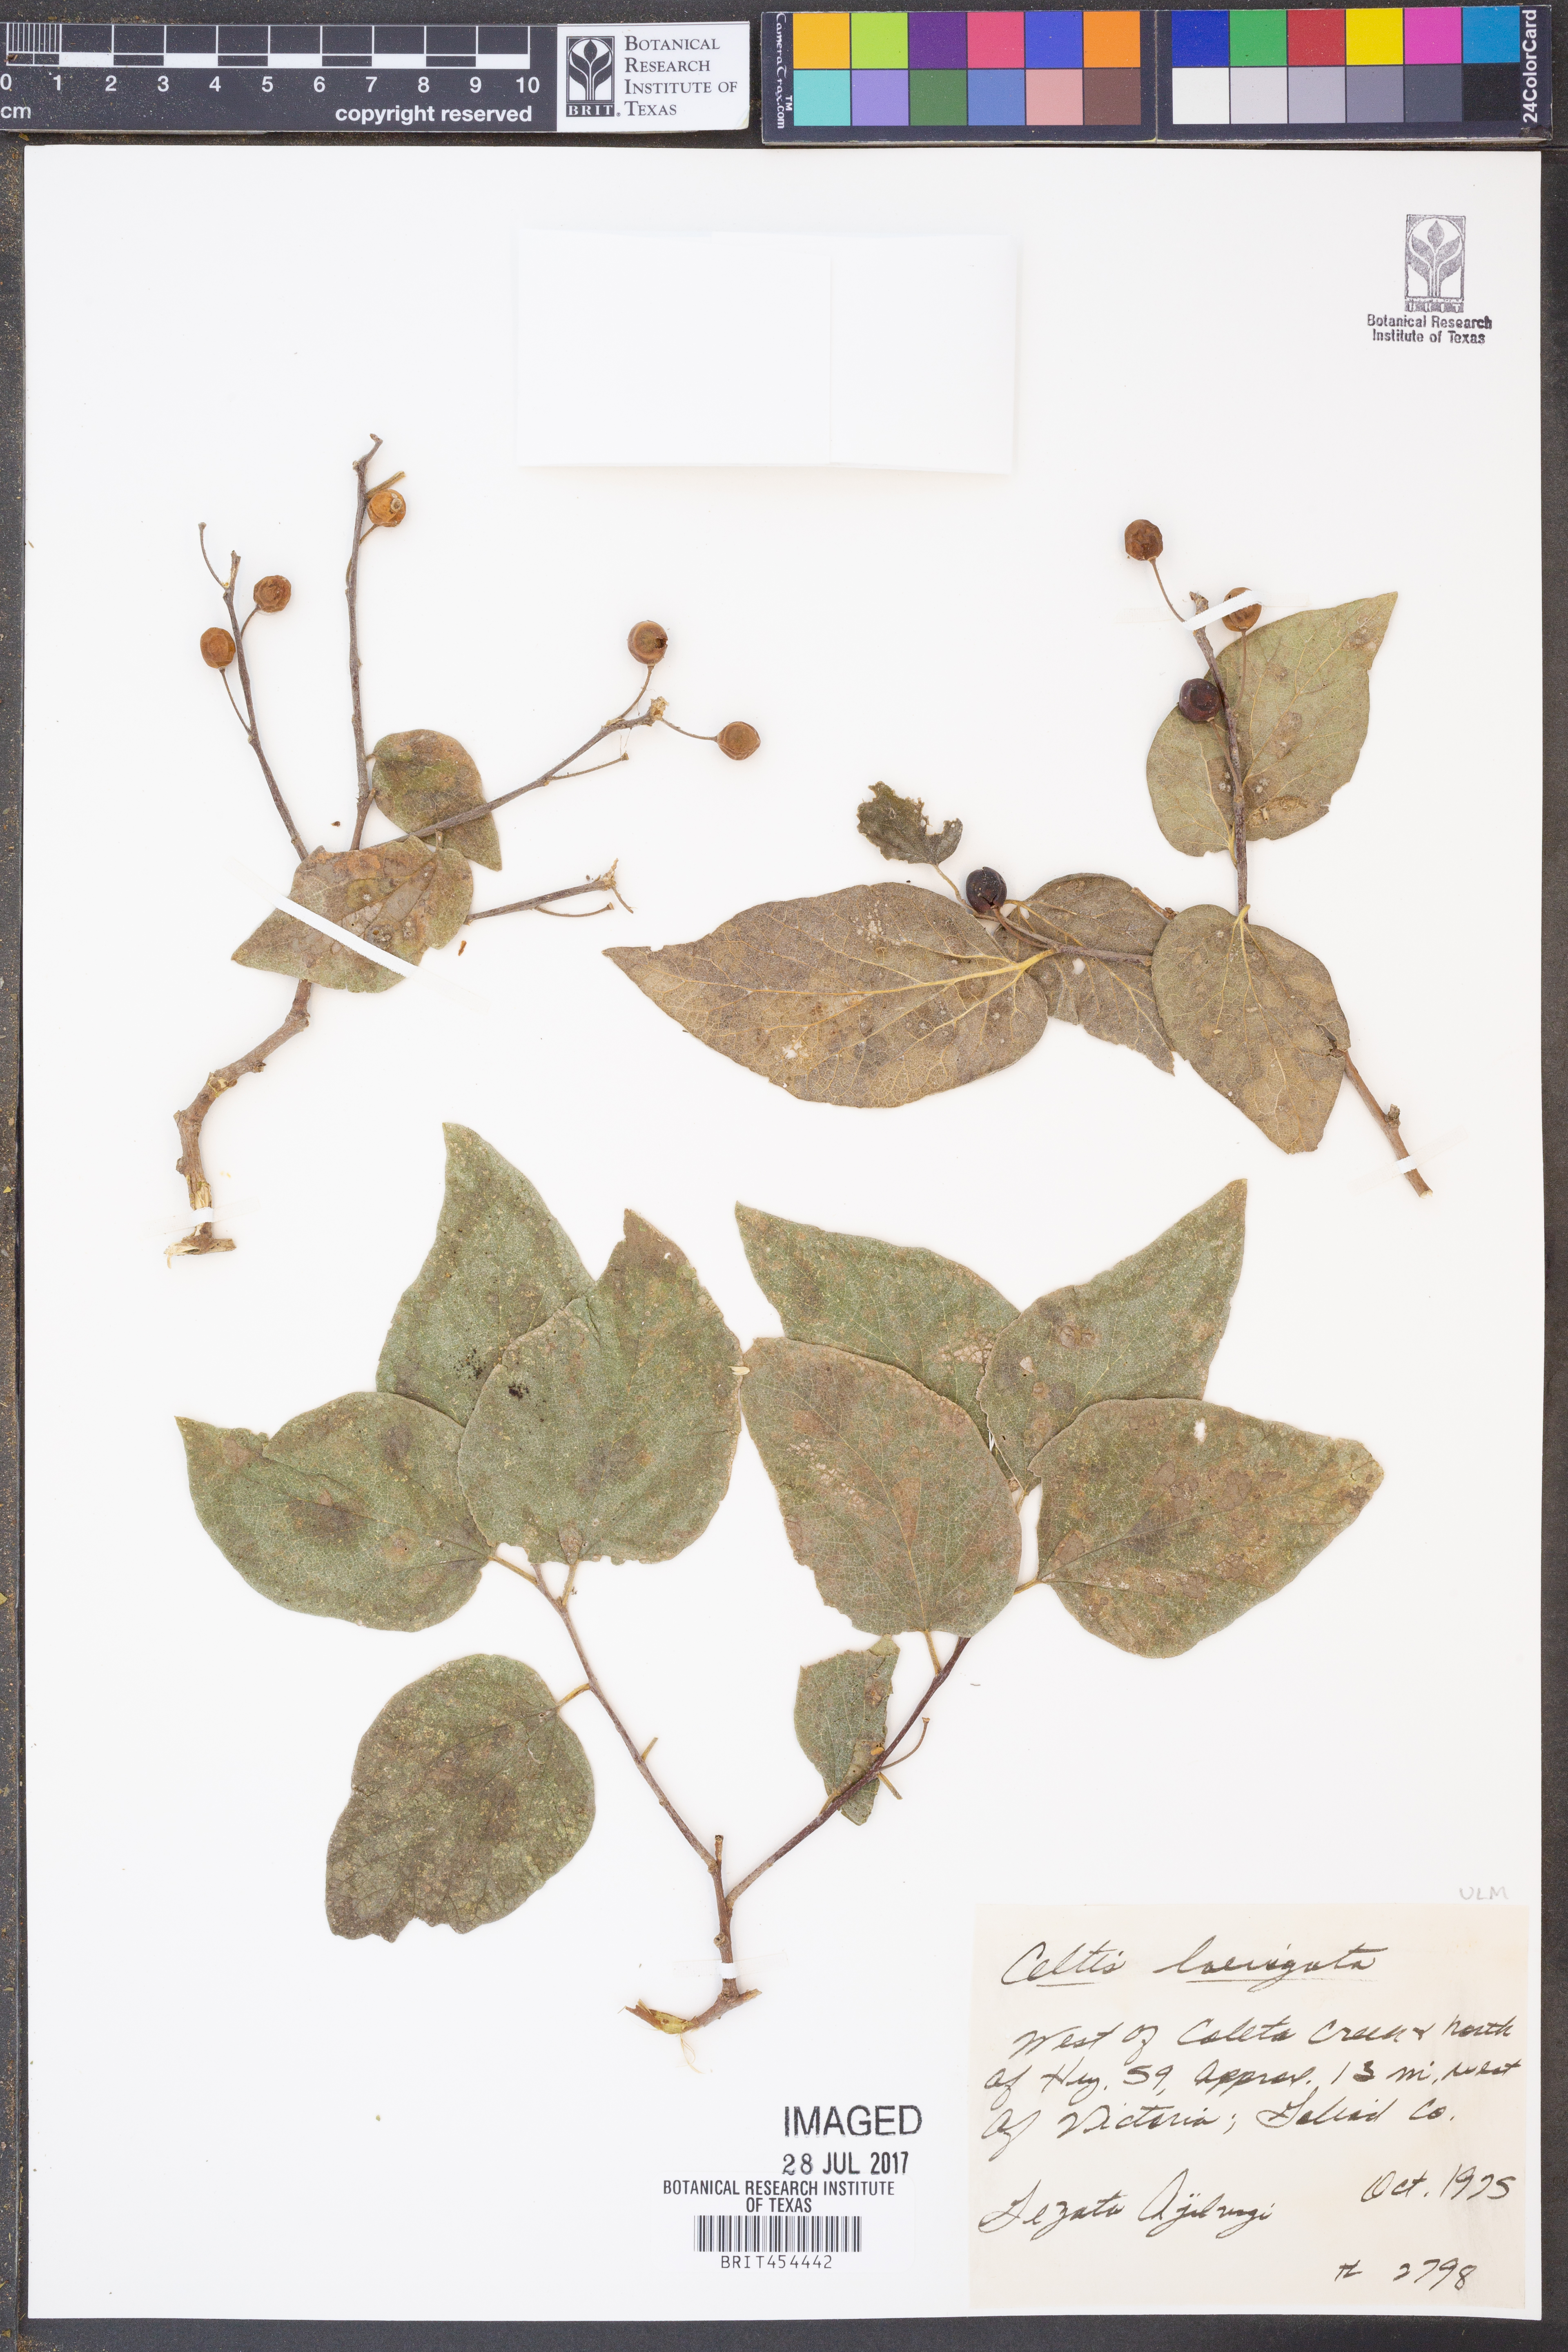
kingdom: Plantae
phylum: Tracheophyta
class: Magnoliopsida
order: Rosales
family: Cannabaceae
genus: Celtis
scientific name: Celtis laevigata
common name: Sugarberry
